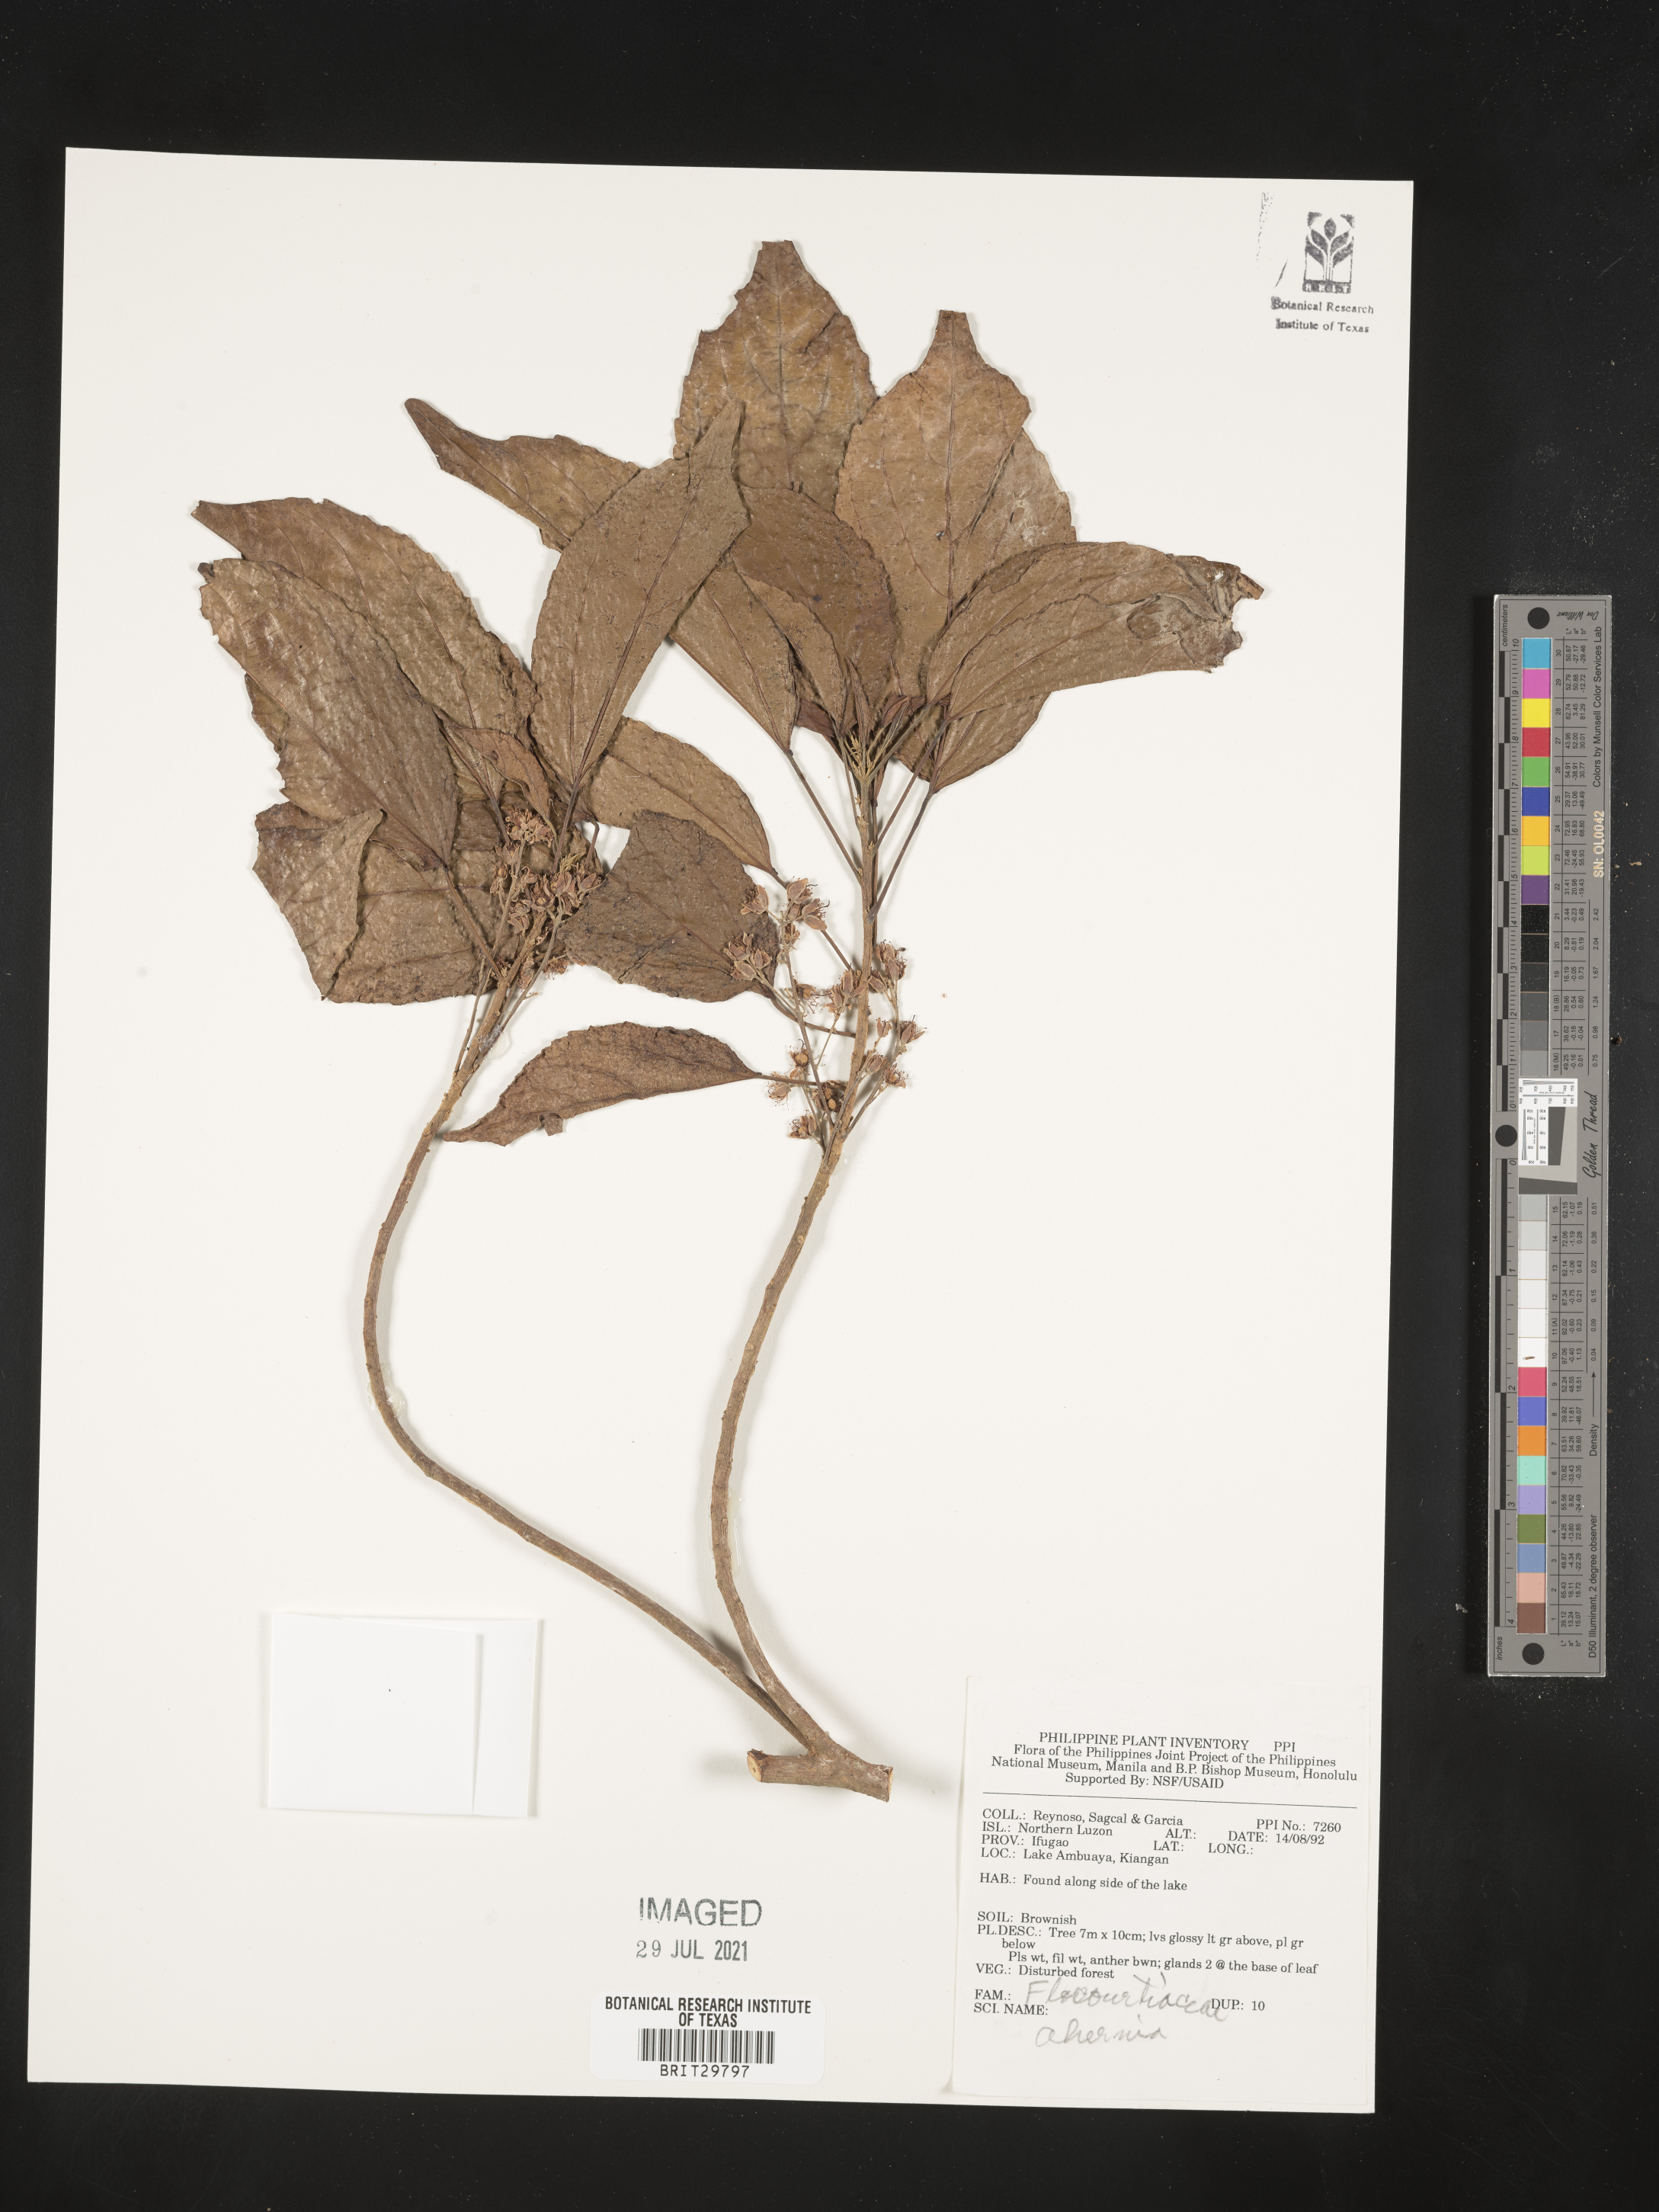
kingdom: Plantae
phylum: Tracheophyta
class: Magnoliopsida
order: Malpighiales
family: Achariaceae
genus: Ahernia
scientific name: Ahernia
